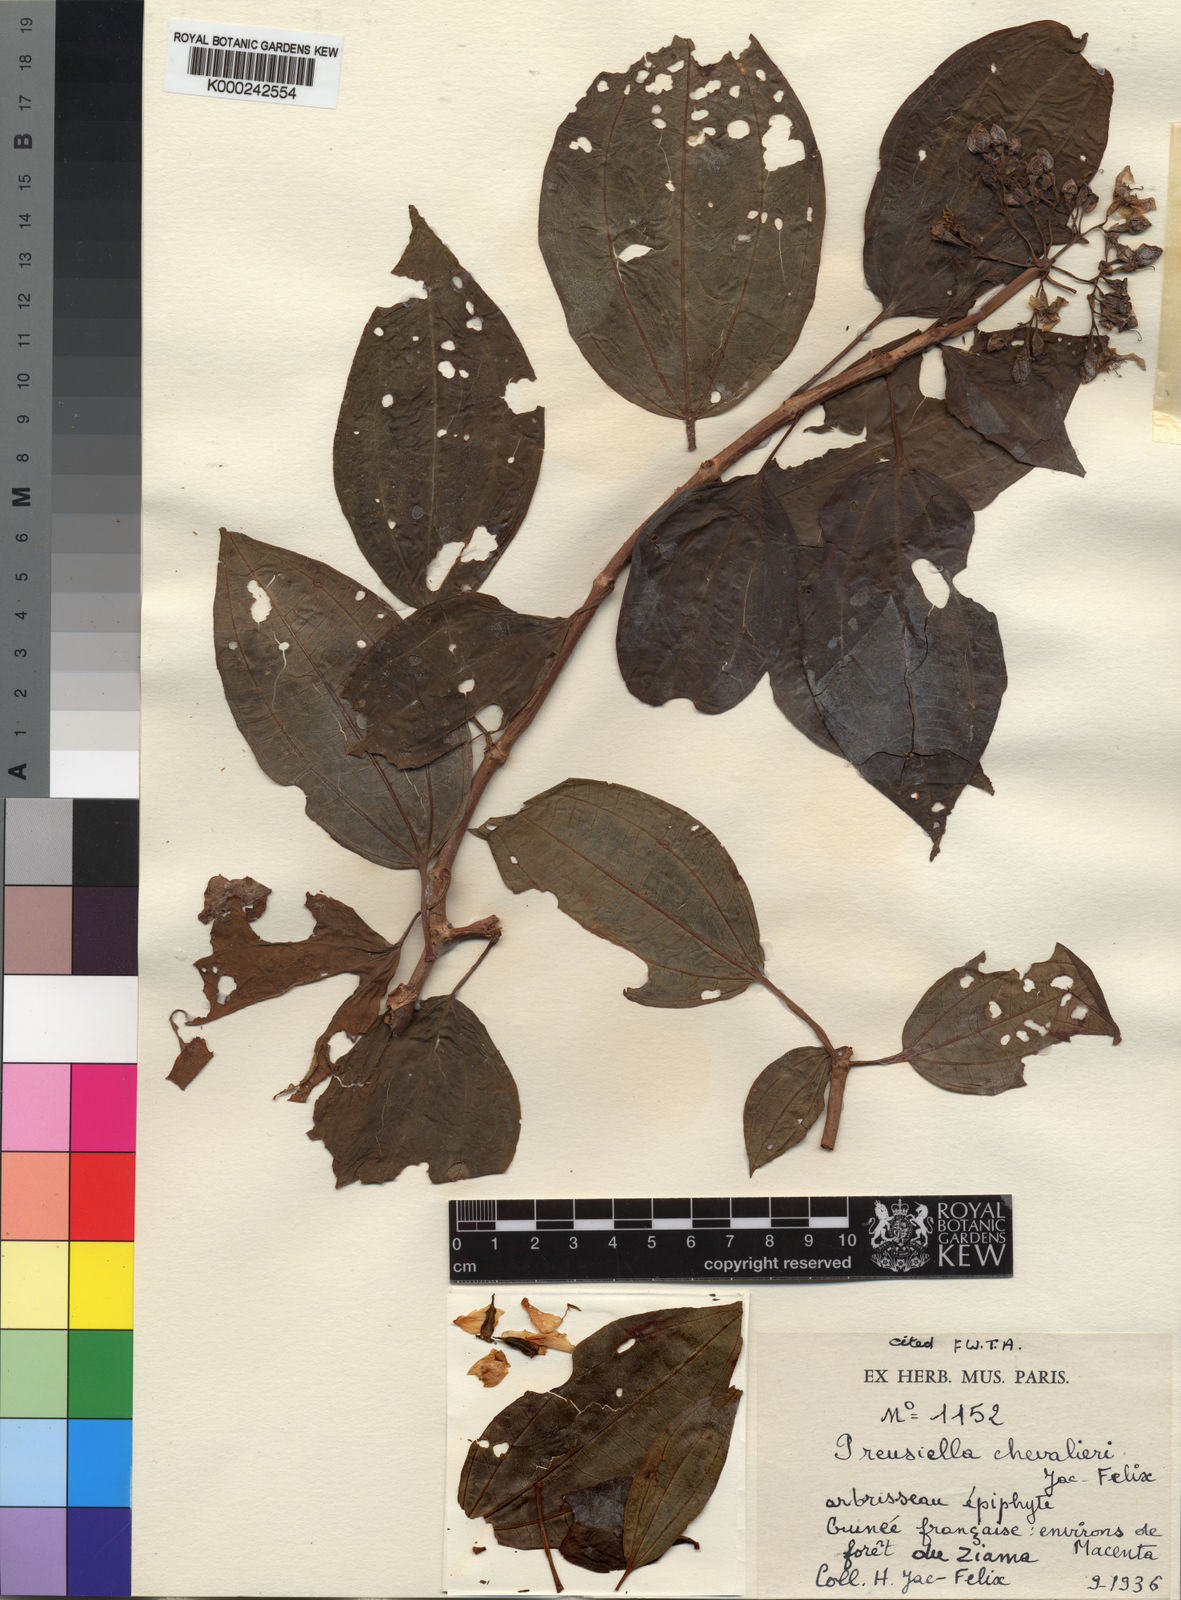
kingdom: Plantae
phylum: Tracheophyta
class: Magnoliopsida
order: Myrtales
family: Melastomataceae
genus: Preussiella
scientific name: Preussiella kamerunensis
